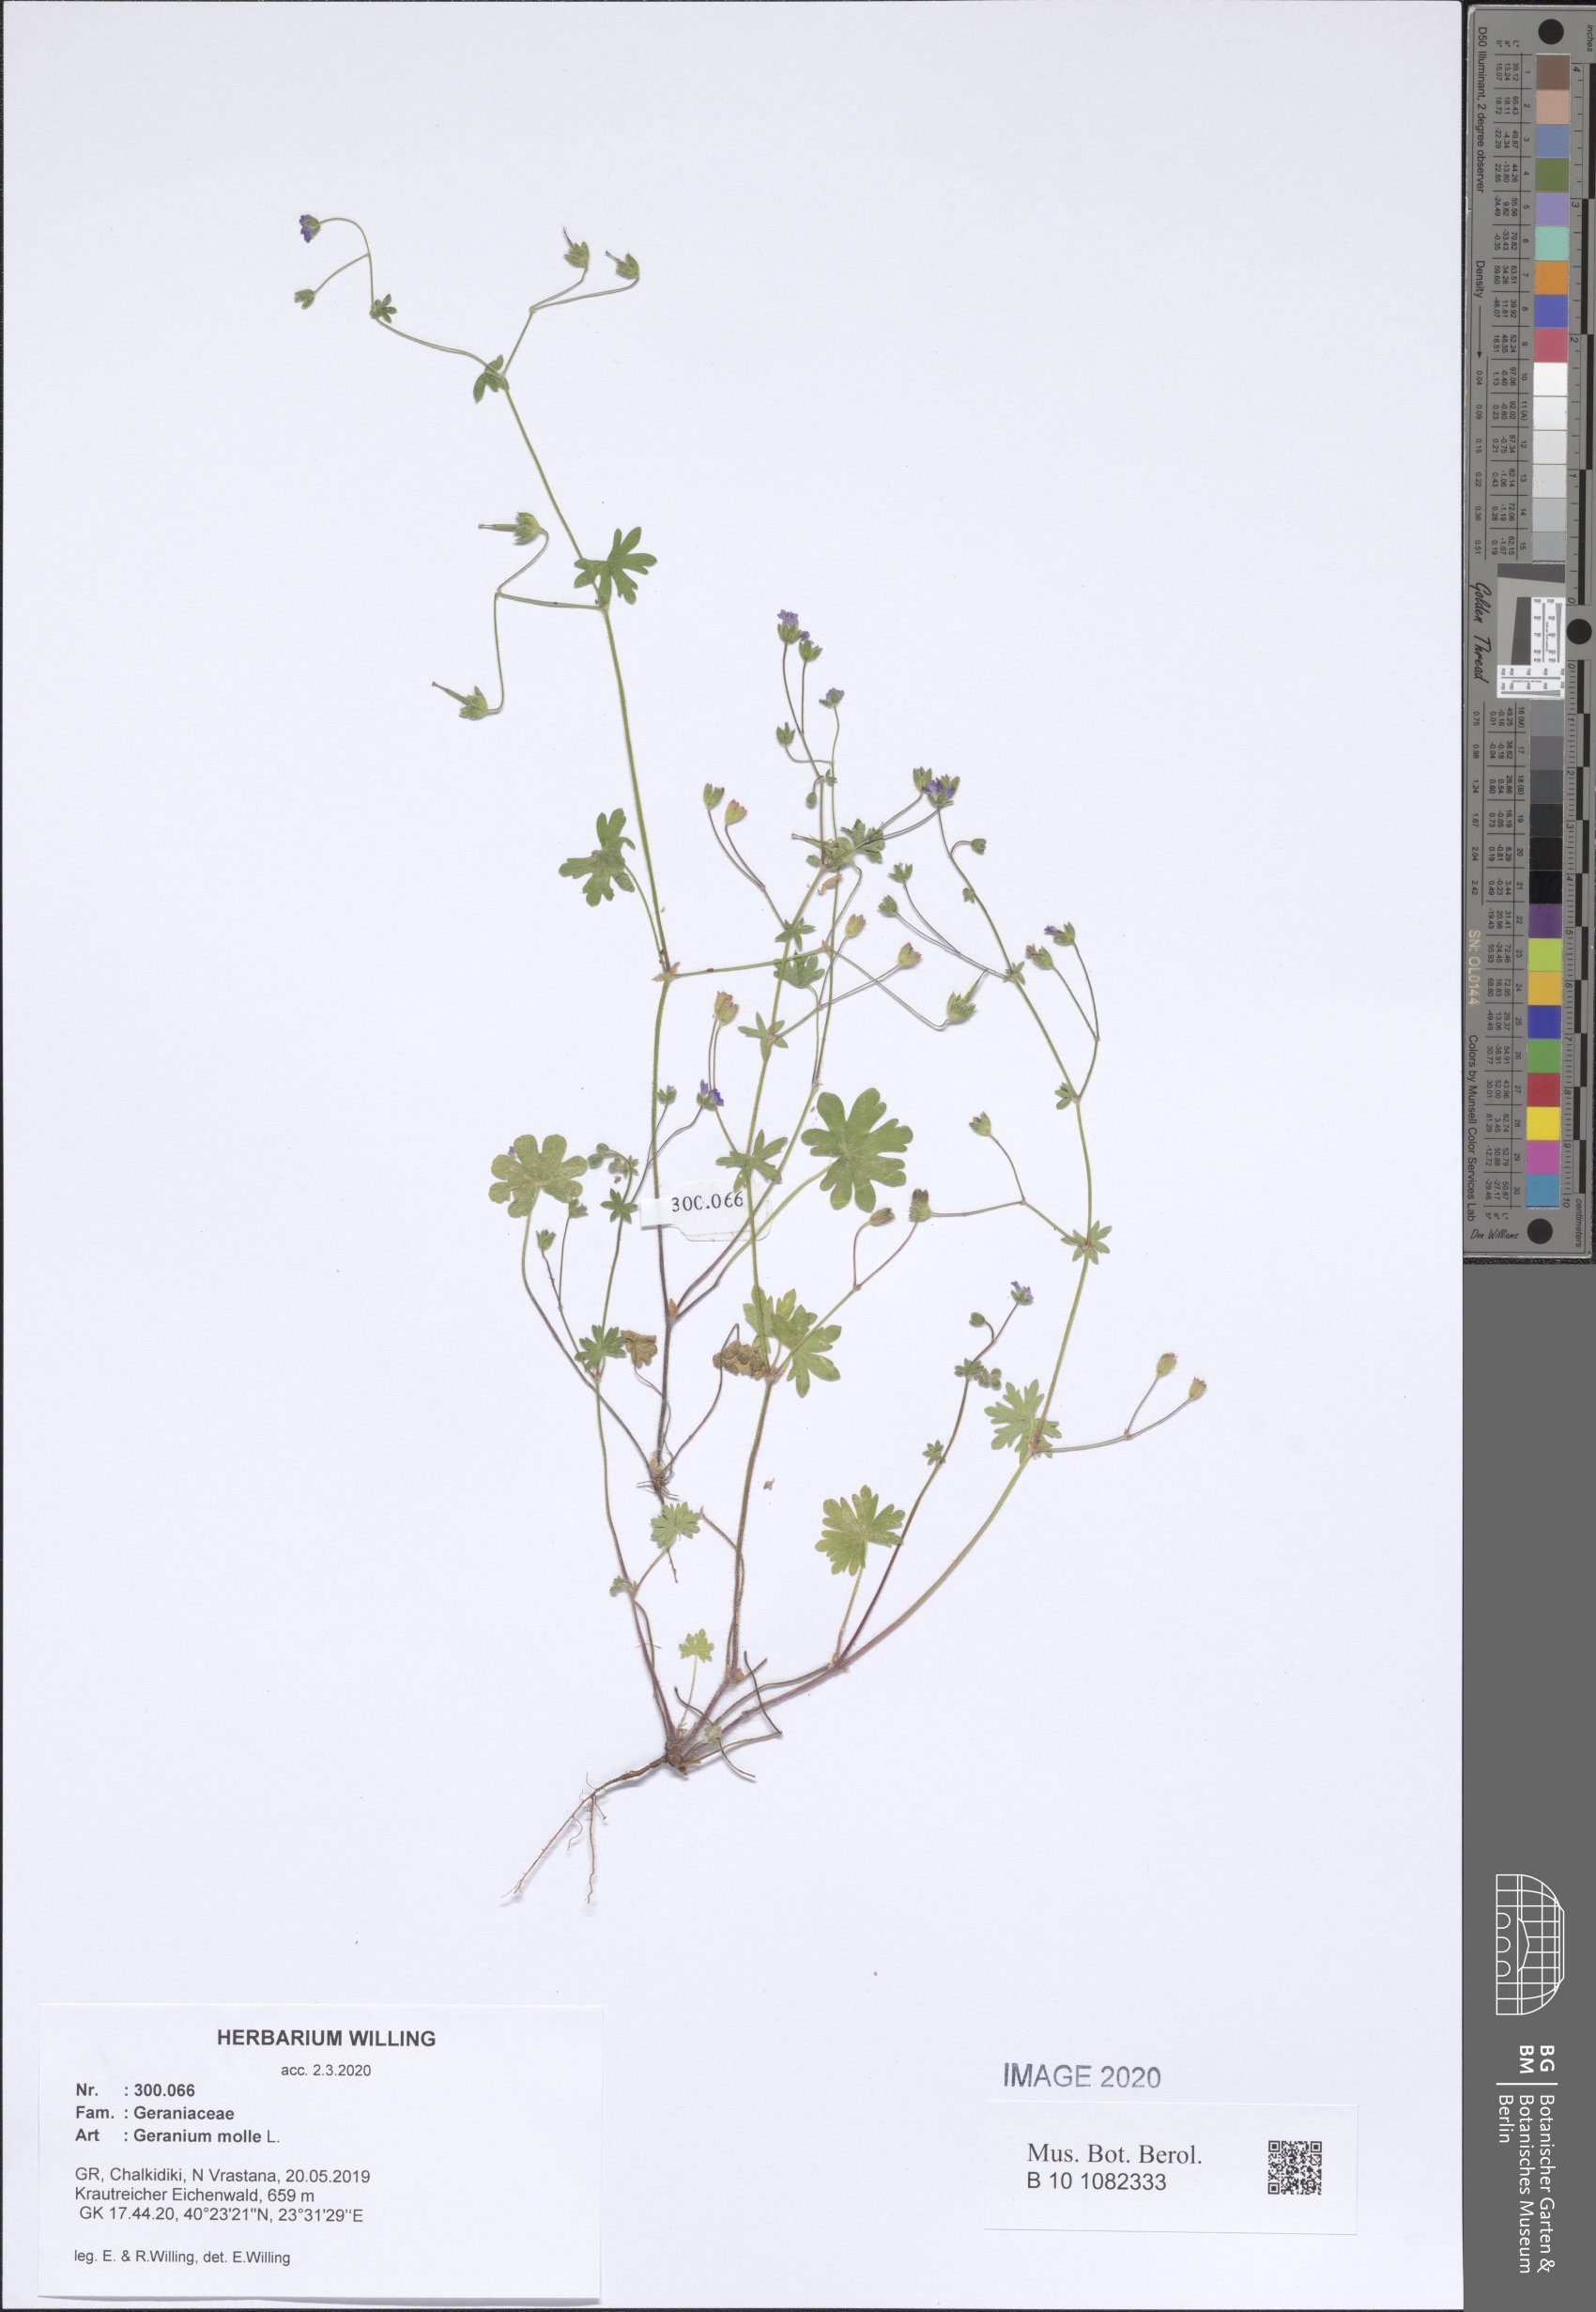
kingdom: Plantae
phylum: Tracheophyta
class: Magnoliopsida
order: Geraniales
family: Geraniaceae
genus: Geranium
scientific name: Geranium molle
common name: Dove's-foot crane's-bill
